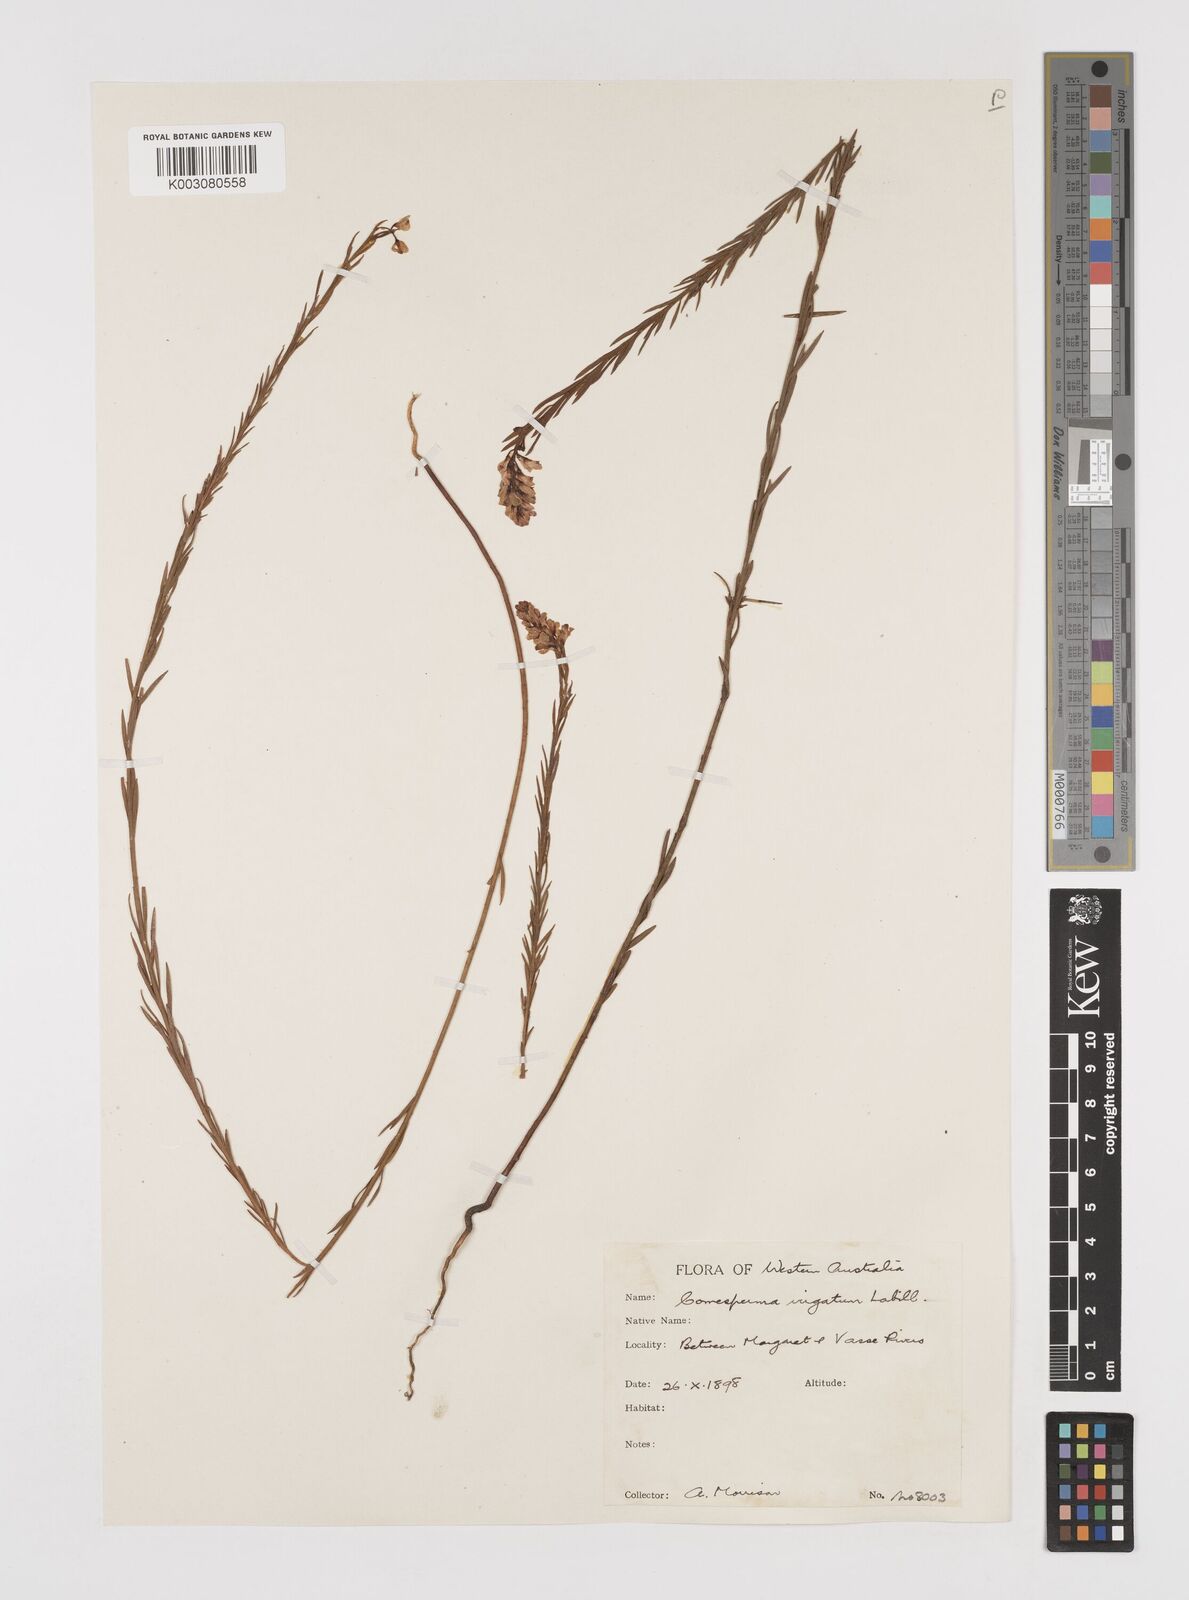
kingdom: Plantae
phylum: Tracheophyta
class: Magnoliopsida
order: Fabales
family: Polygalaceae
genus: Comesperma
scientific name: Comesperma virgatum
